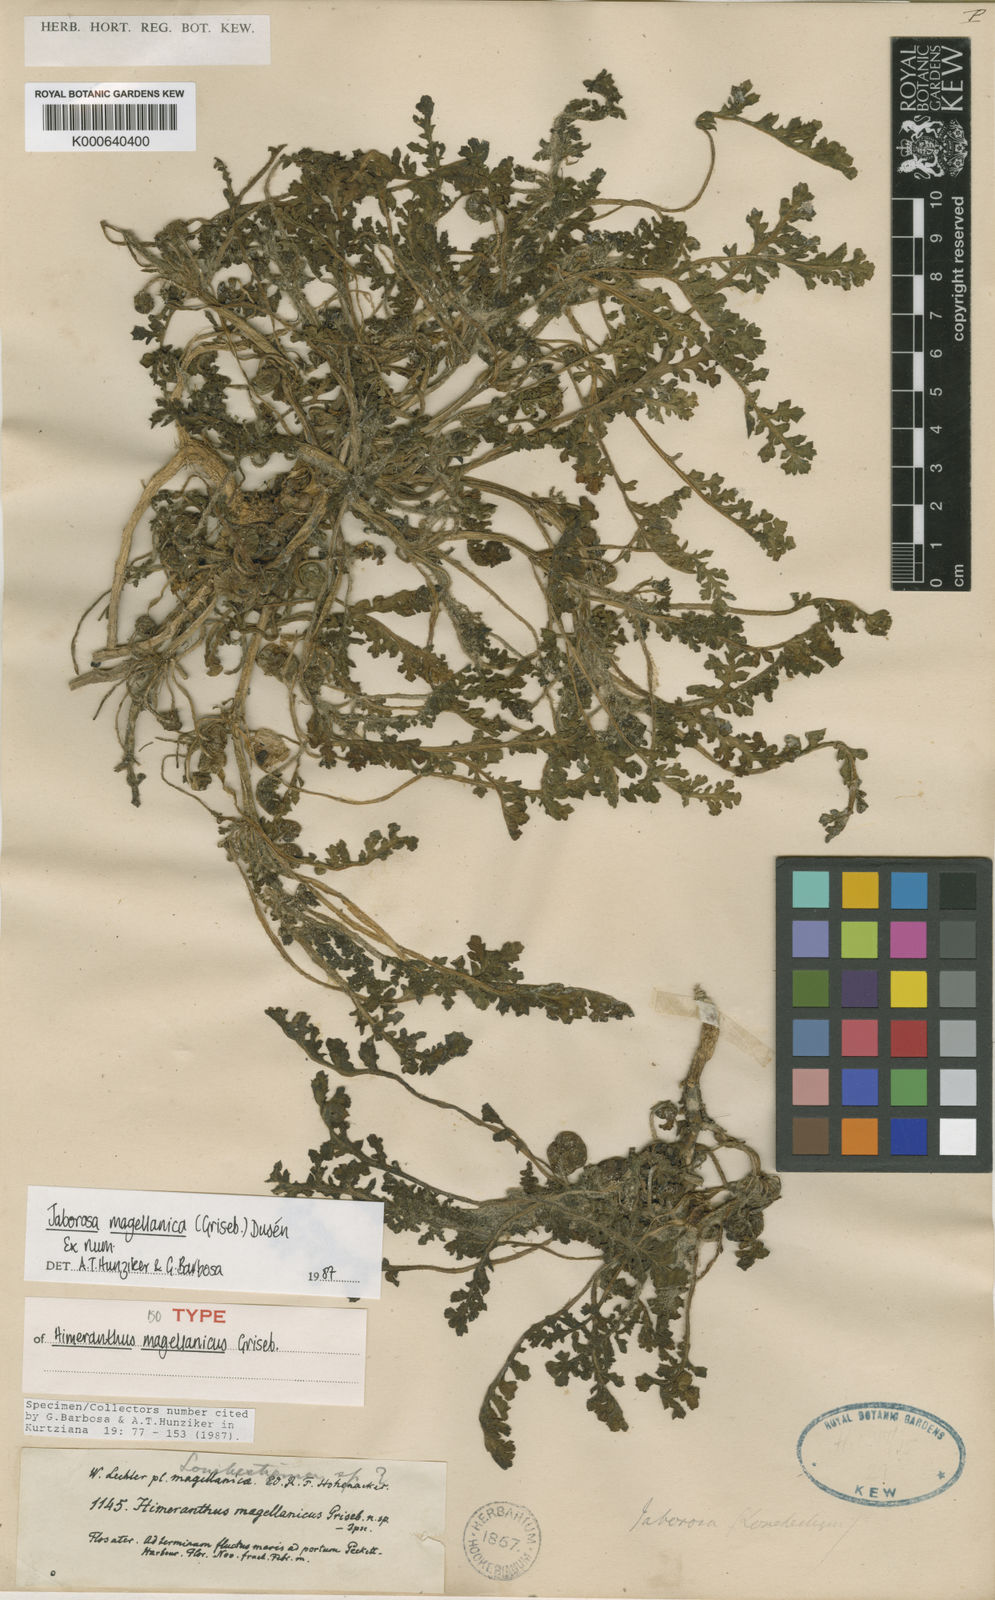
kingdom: Plantae
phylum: Tracheophyta
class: Magnoliopsida
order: Solanales
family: Solanaceae
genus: Jaborosa
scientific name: Jaborosa
